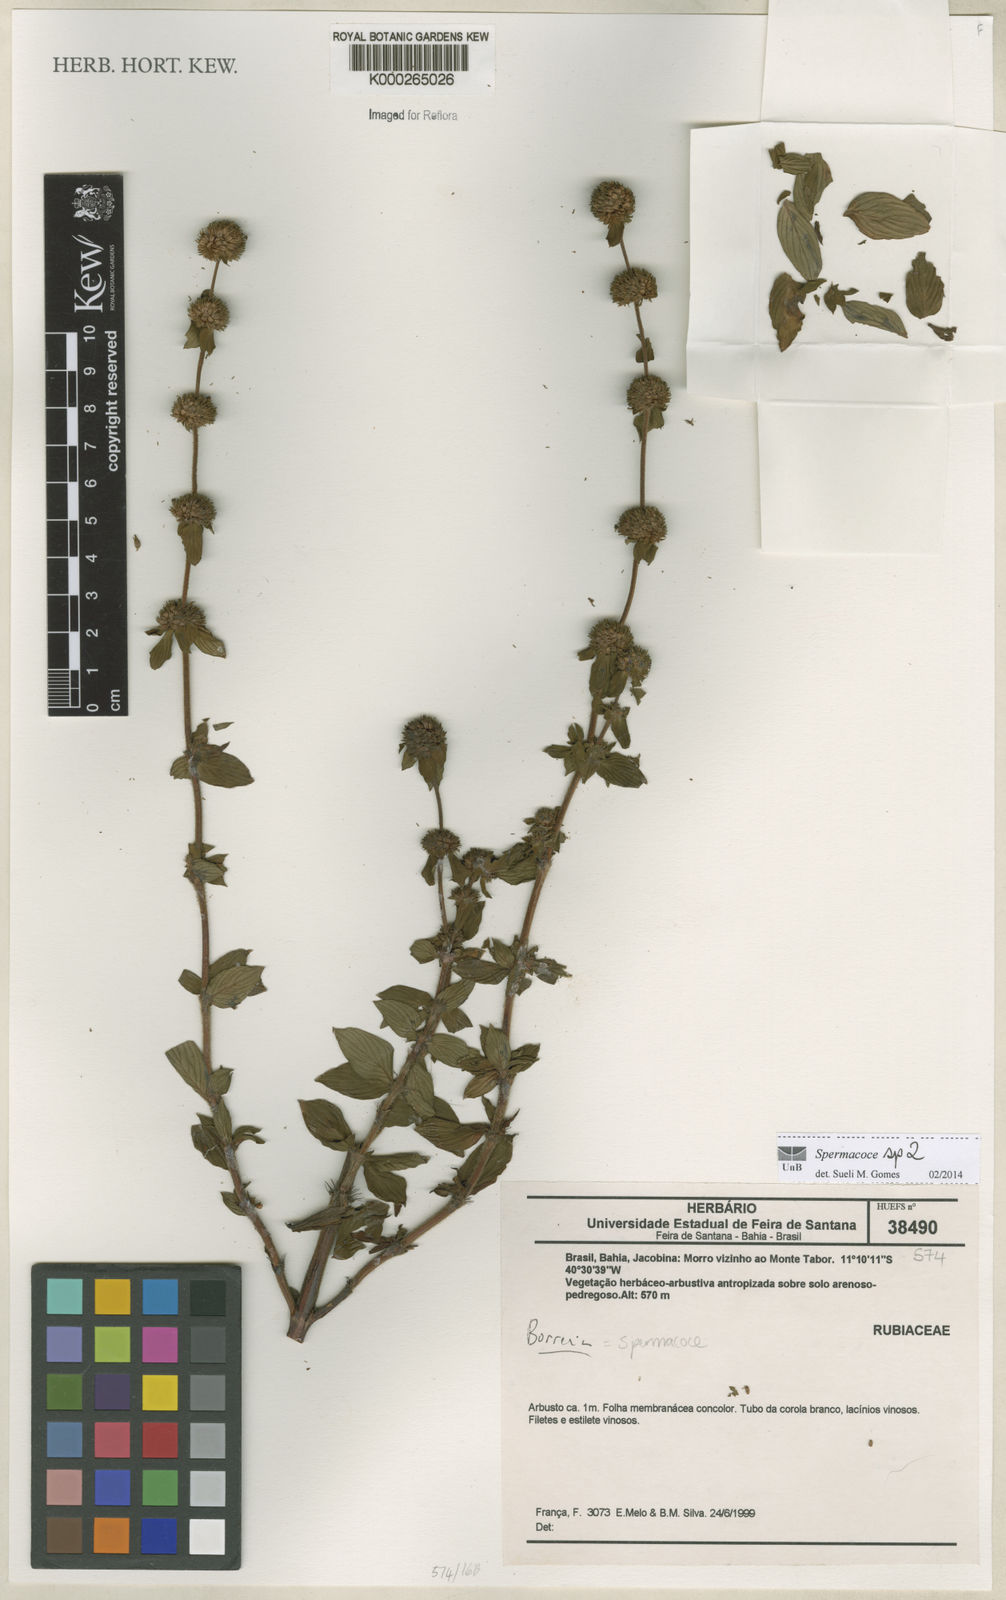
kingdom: Plantae
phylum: Tracheophyta
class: Magnoliopsida
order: Gentianales
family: Rubiaceae
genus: Spermacoce
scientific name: Spermacoce
